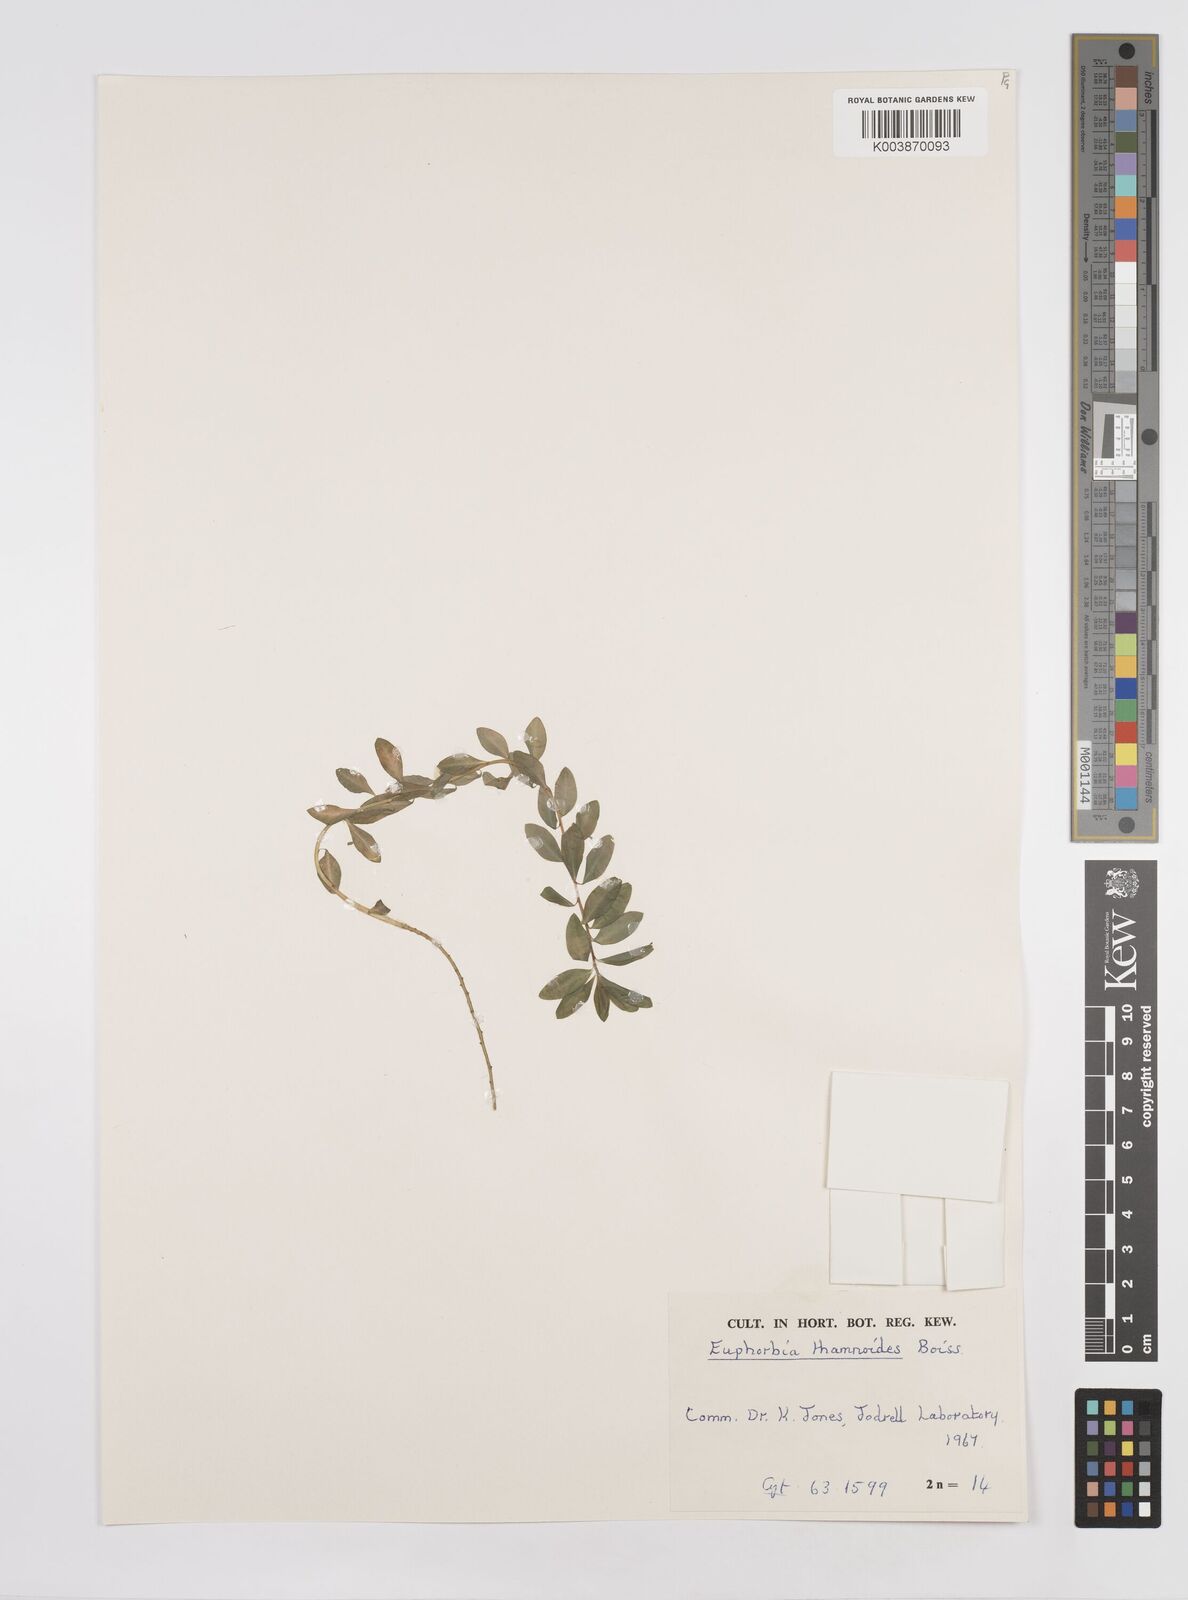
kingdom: Plantae
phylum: Tracheophyta
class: Magnoliopsida
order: Malpighiales
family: Euphorbiaceae
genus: Euphorbia
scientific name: Euphorbia hierosolymitana
